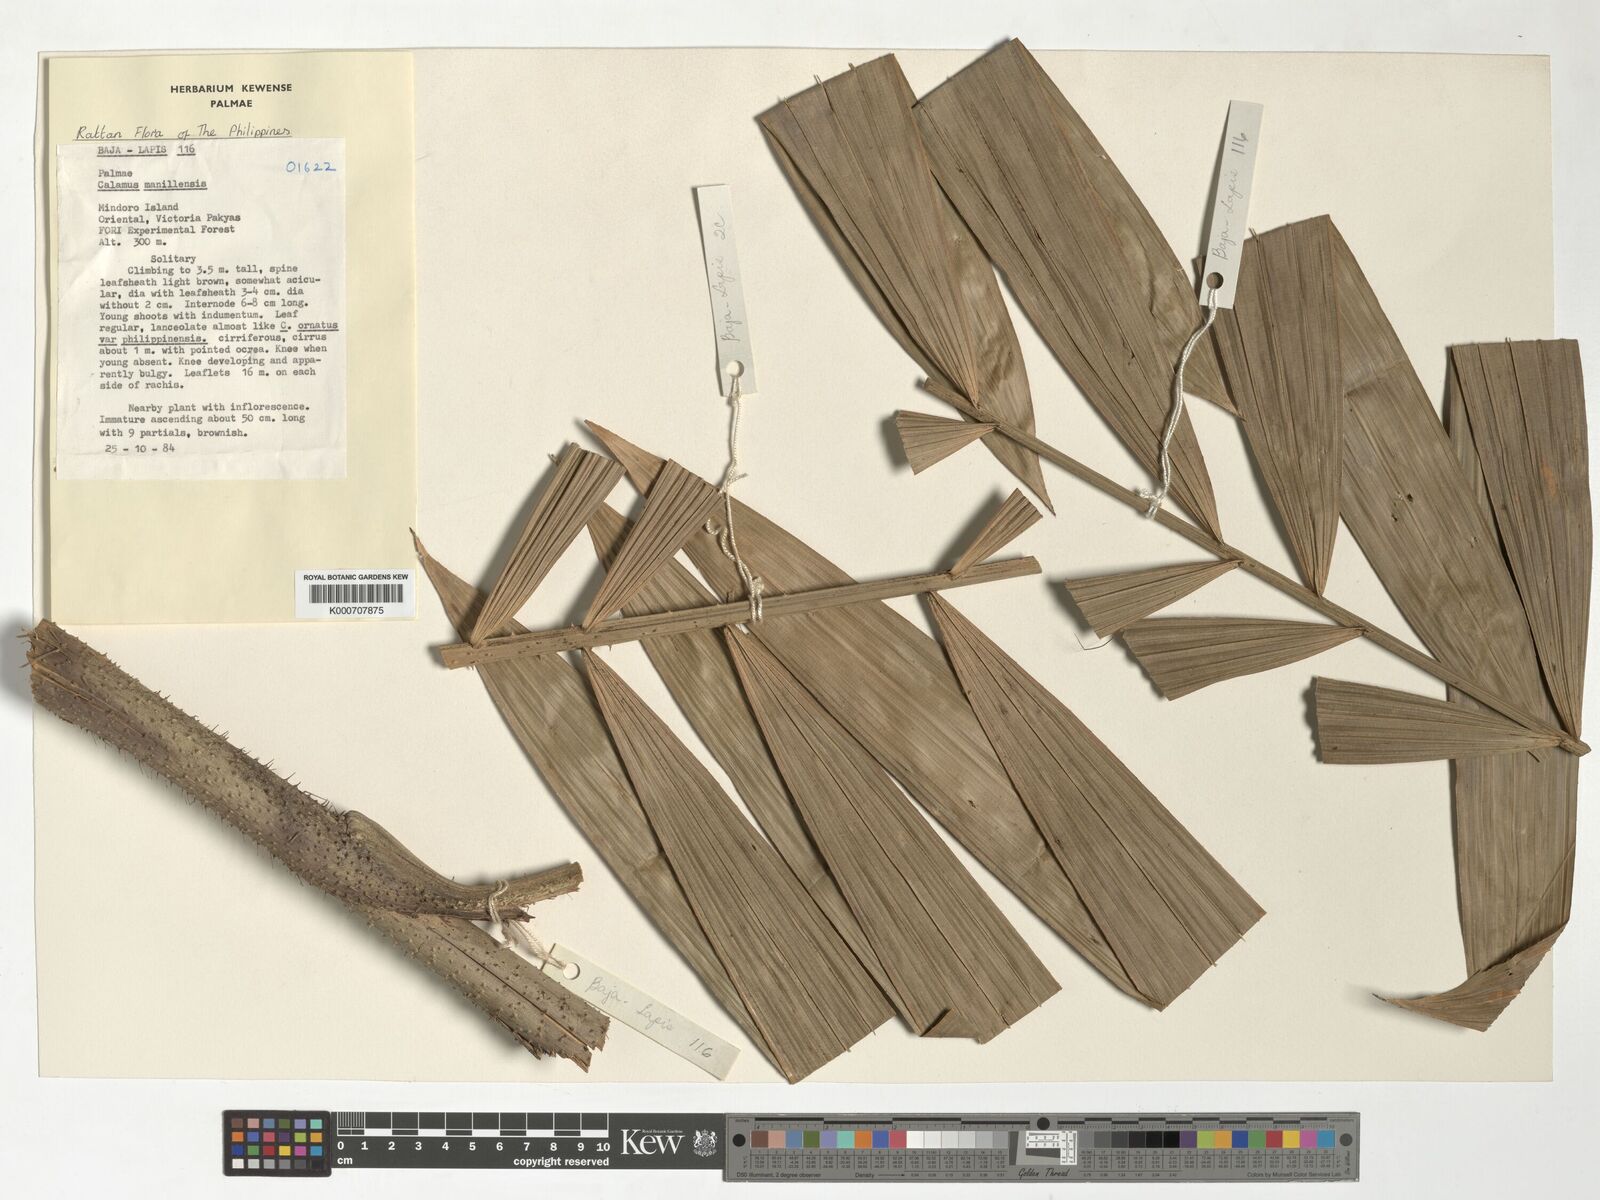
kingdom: Plantae
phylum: Tracheophyta
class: Liliopsida
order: Arecales
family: Arecaceae
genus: Calamus
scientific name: Calamus manillensis
